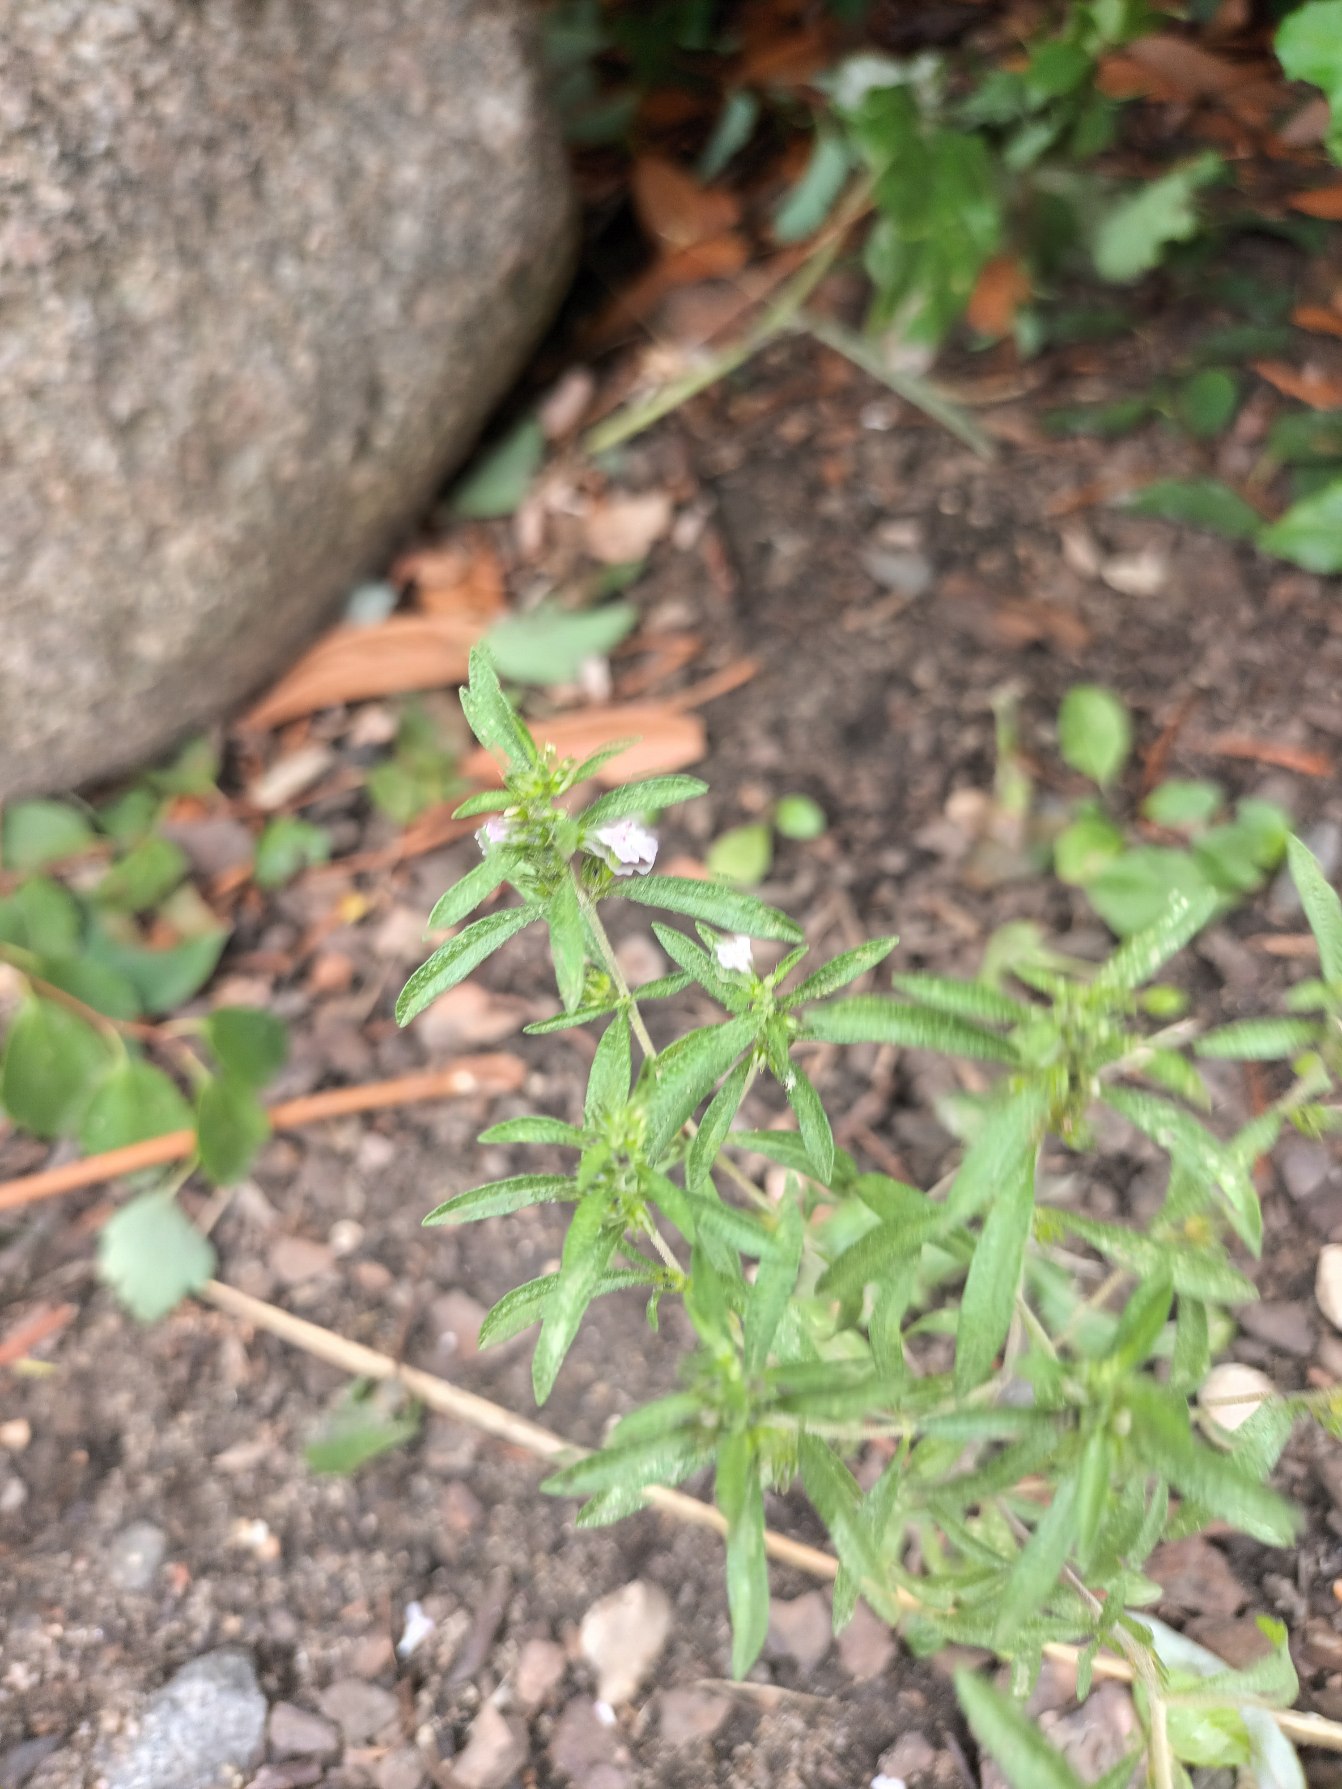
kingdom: Plantae
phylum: Tracheophyta
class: Magnoliopsida
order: Lamiales
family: Lamiaceae
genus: Satureja
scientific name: Satureja hortensis
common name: Almindelig sar
